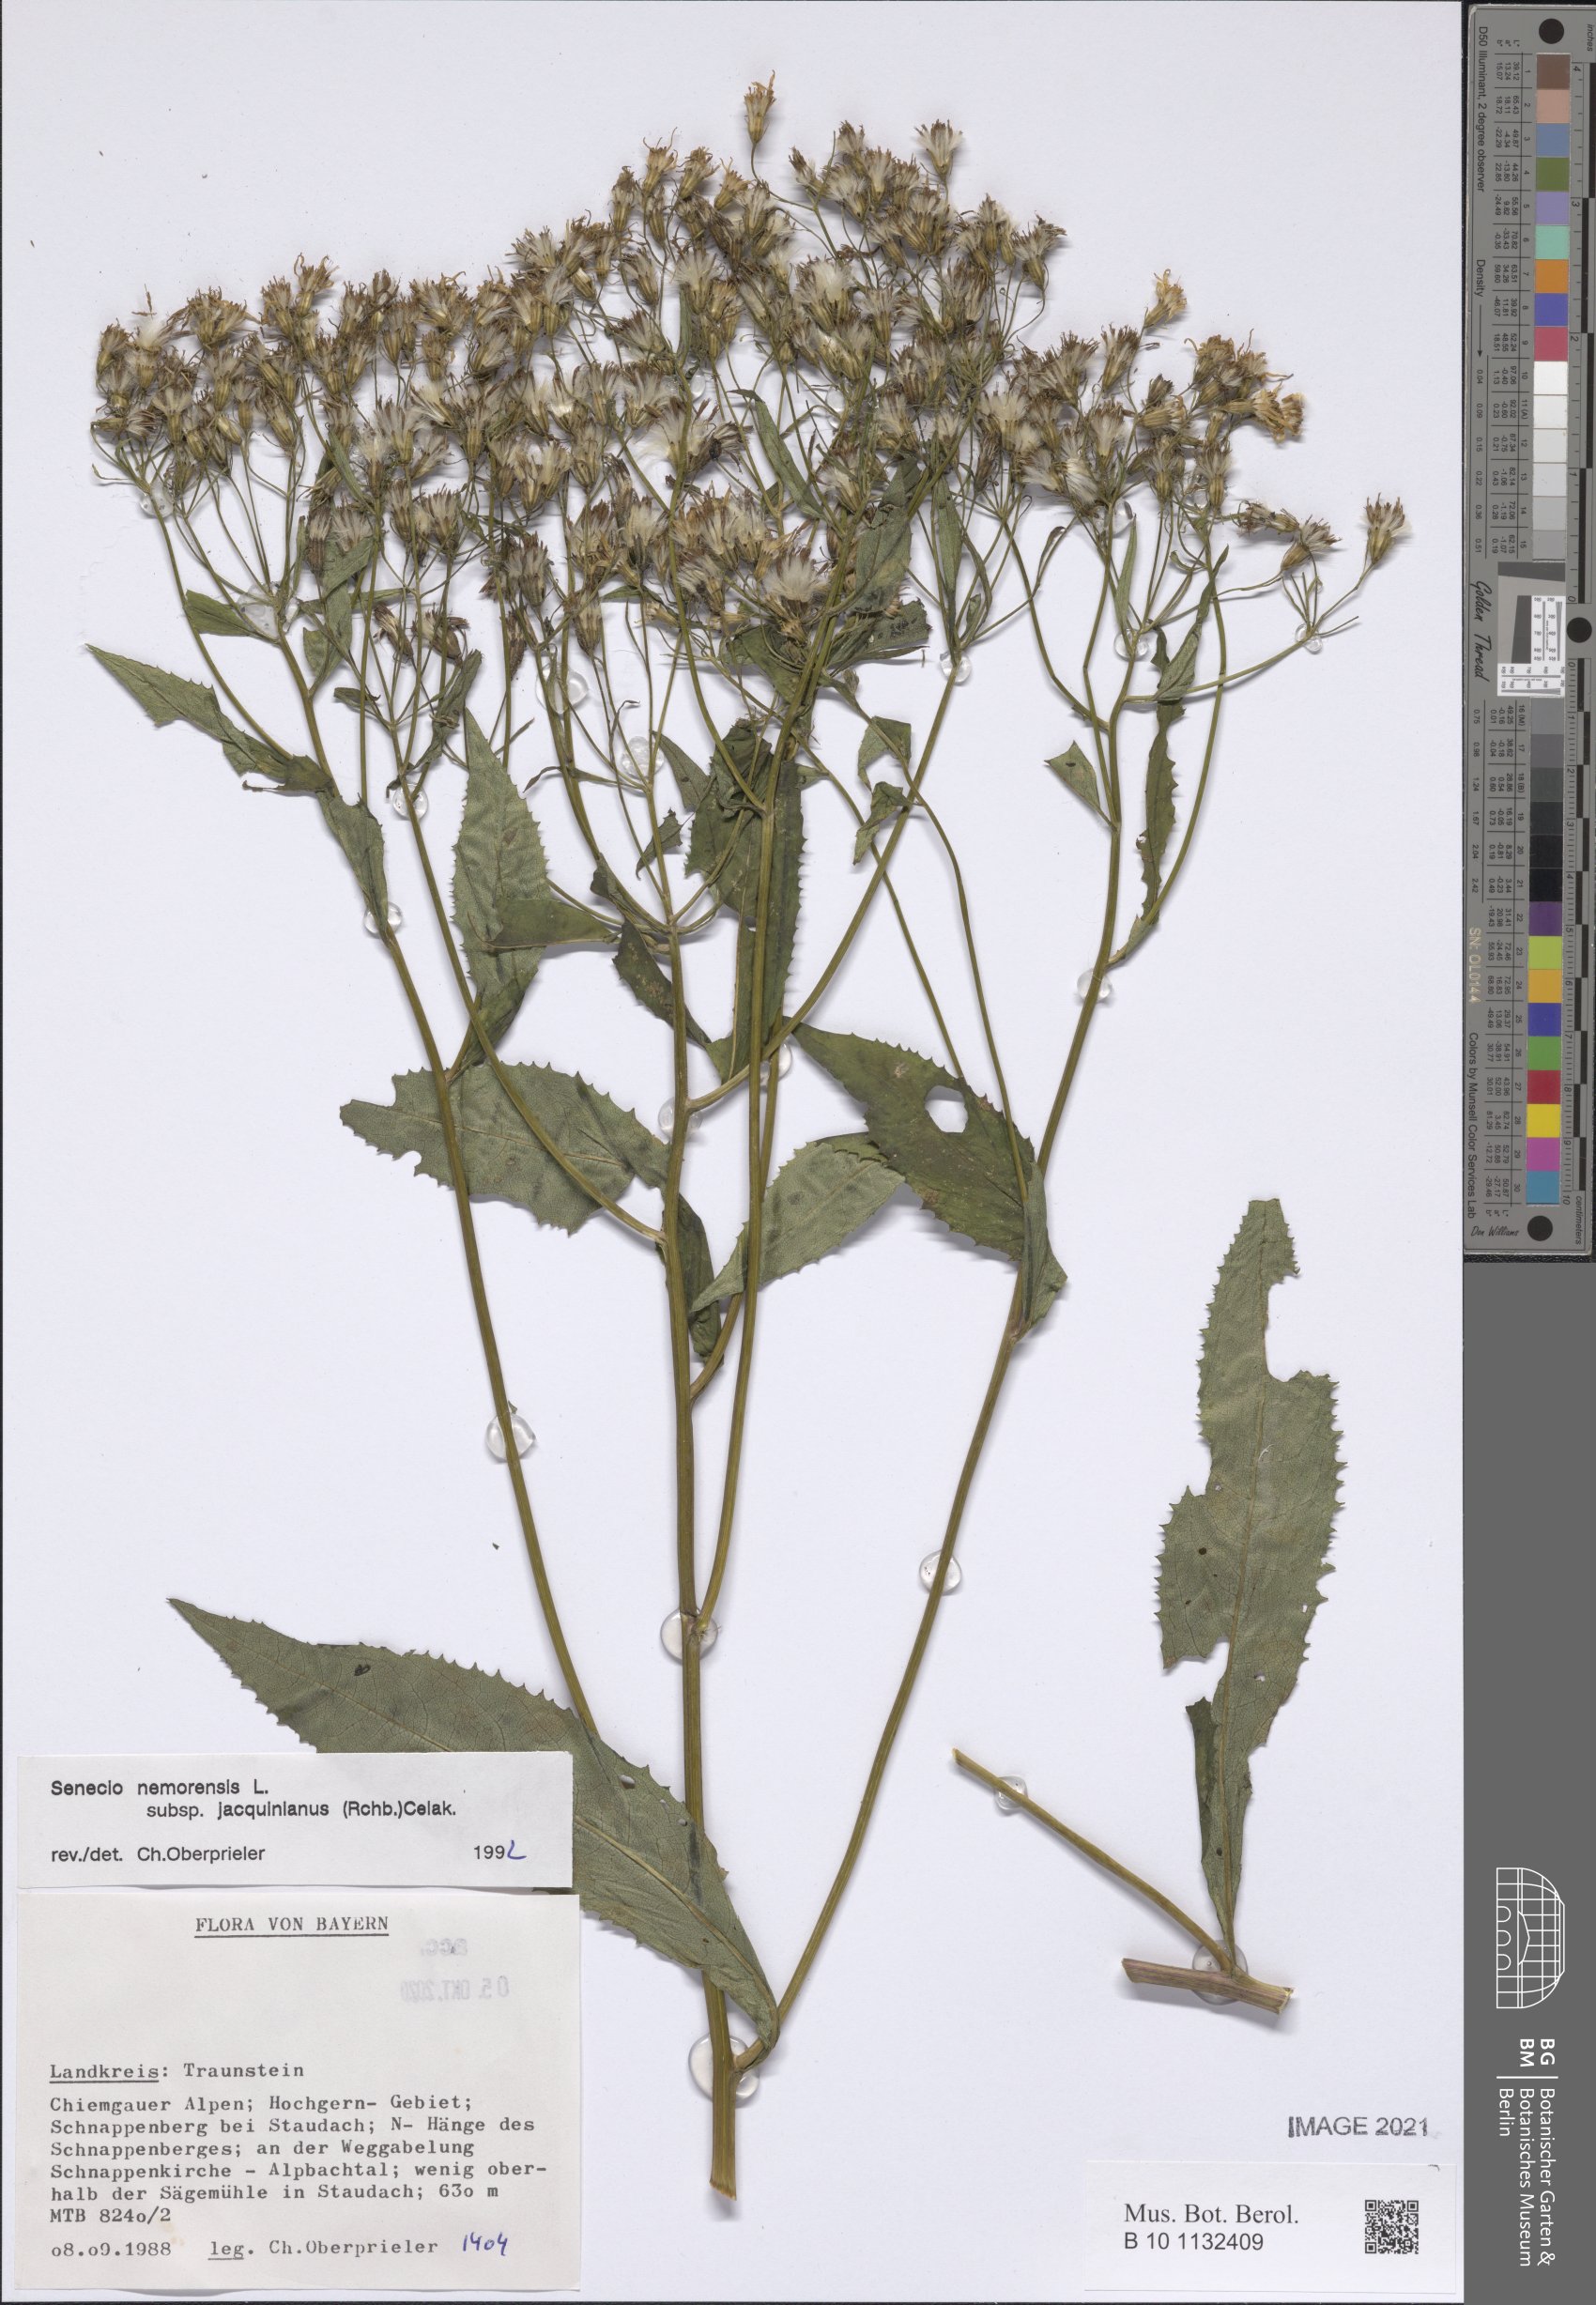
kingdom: Plantae
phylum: Tracheophyta
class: Magnoliopsida
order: Asterales
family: Asteraceae
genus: Senecio
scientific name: Senecio germanicus
